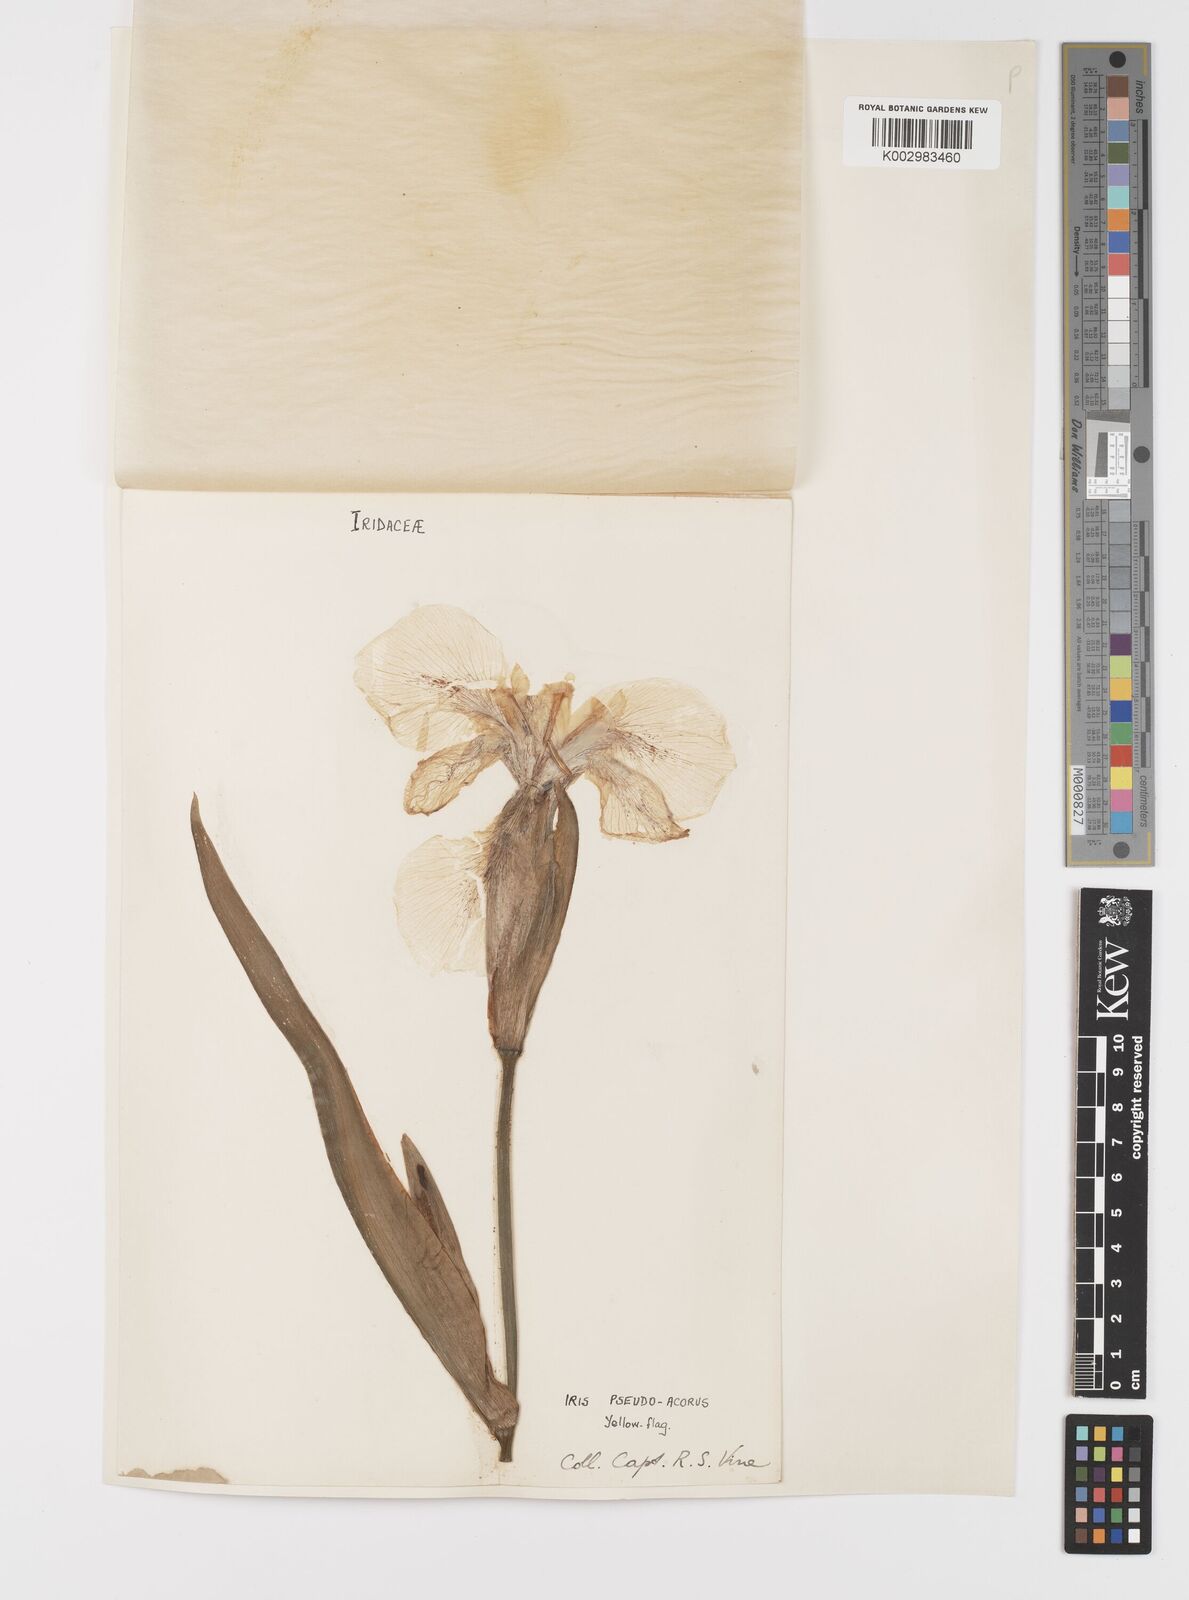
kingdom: Plantae
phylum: Tracheophyta
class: Liliopsida
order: Asparagales
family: Iridaceae
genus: Iris
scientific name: Iris pseudacorus
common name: Yellow flag
